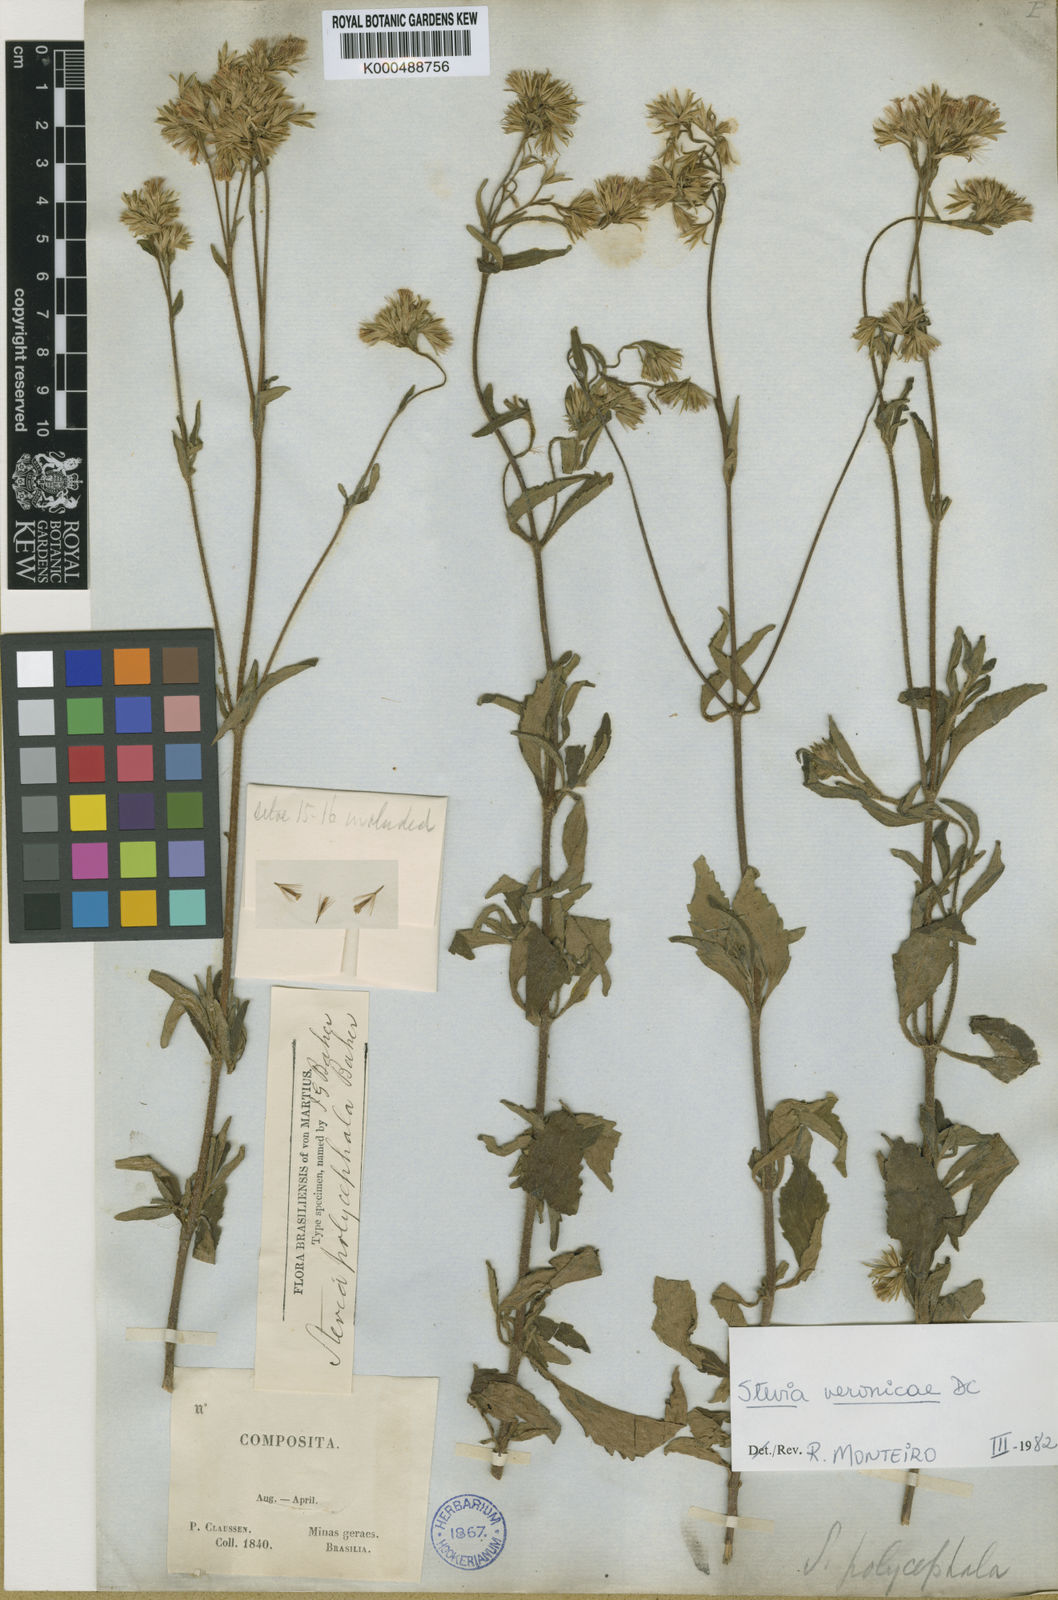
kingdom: Plantae
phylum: Tracheophyta
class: Magnoliopsida
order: Asterales
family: Asteraceae
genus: Stevia
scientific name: Stevia
